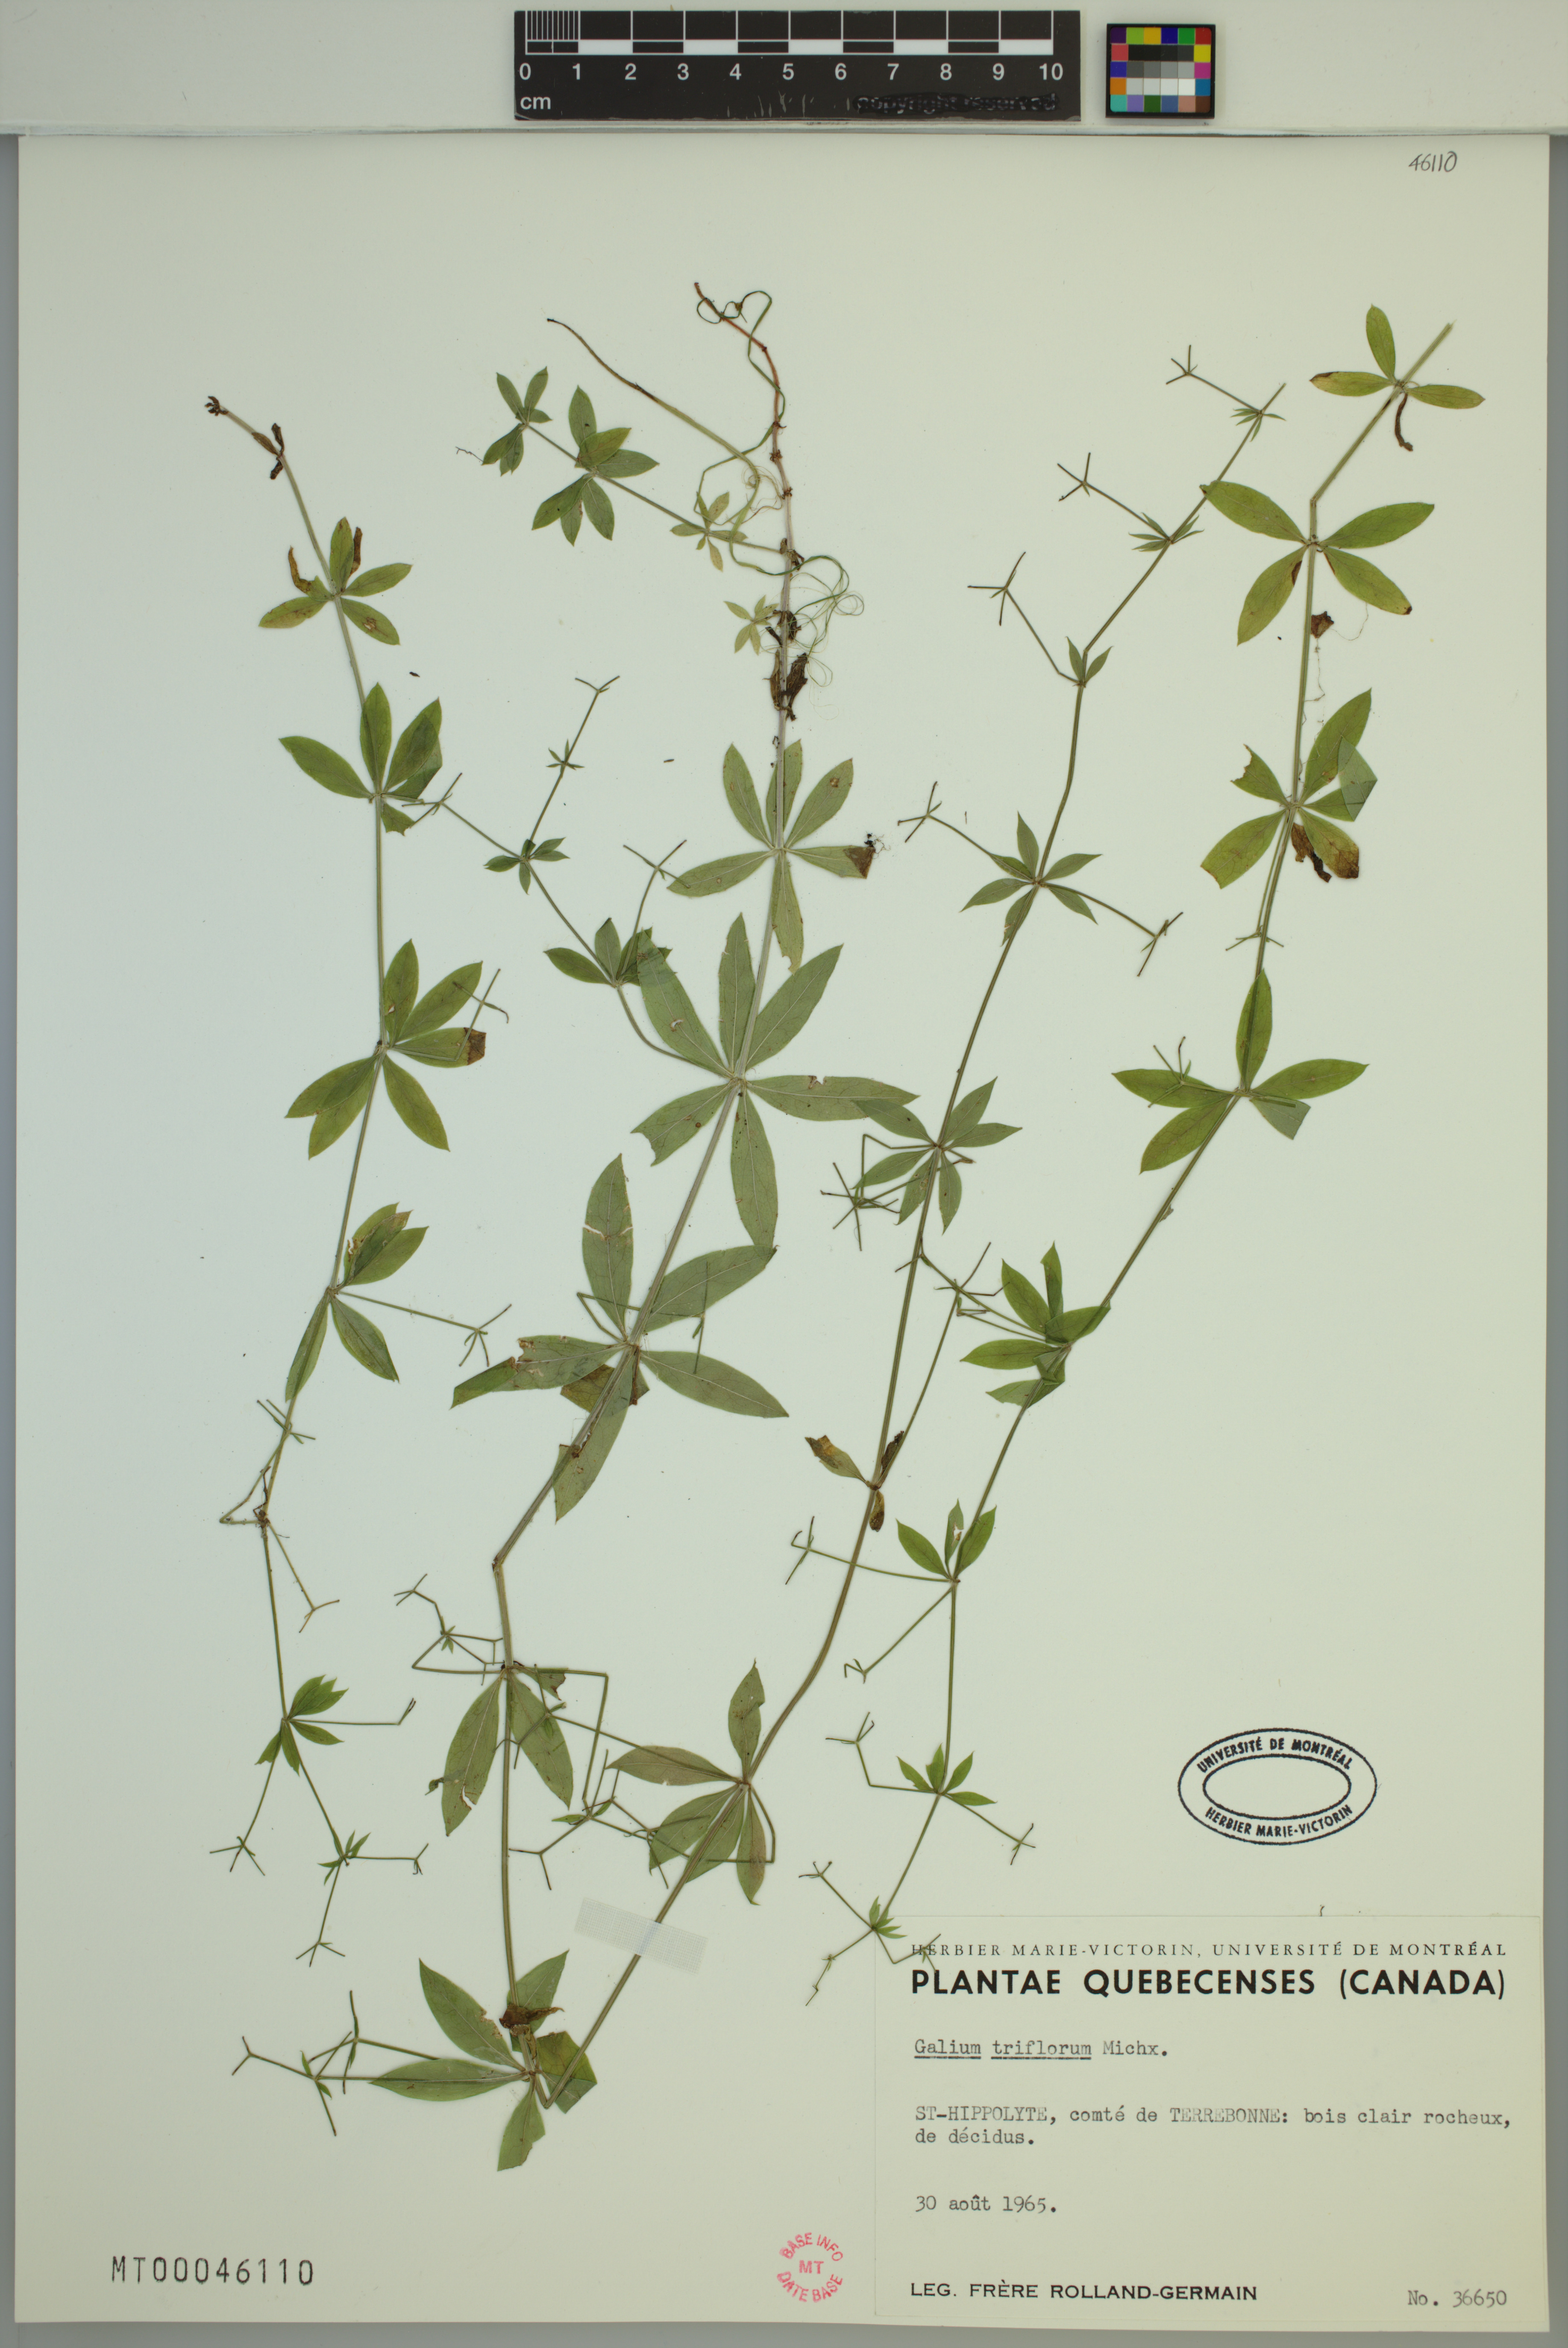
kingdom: Plantae
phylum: Tracheophyta
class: Magnoliopsida
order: Gentianales
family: Rubiaceae
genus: Galium
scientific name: Galium triflorum
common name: Fragrant bedstraw
